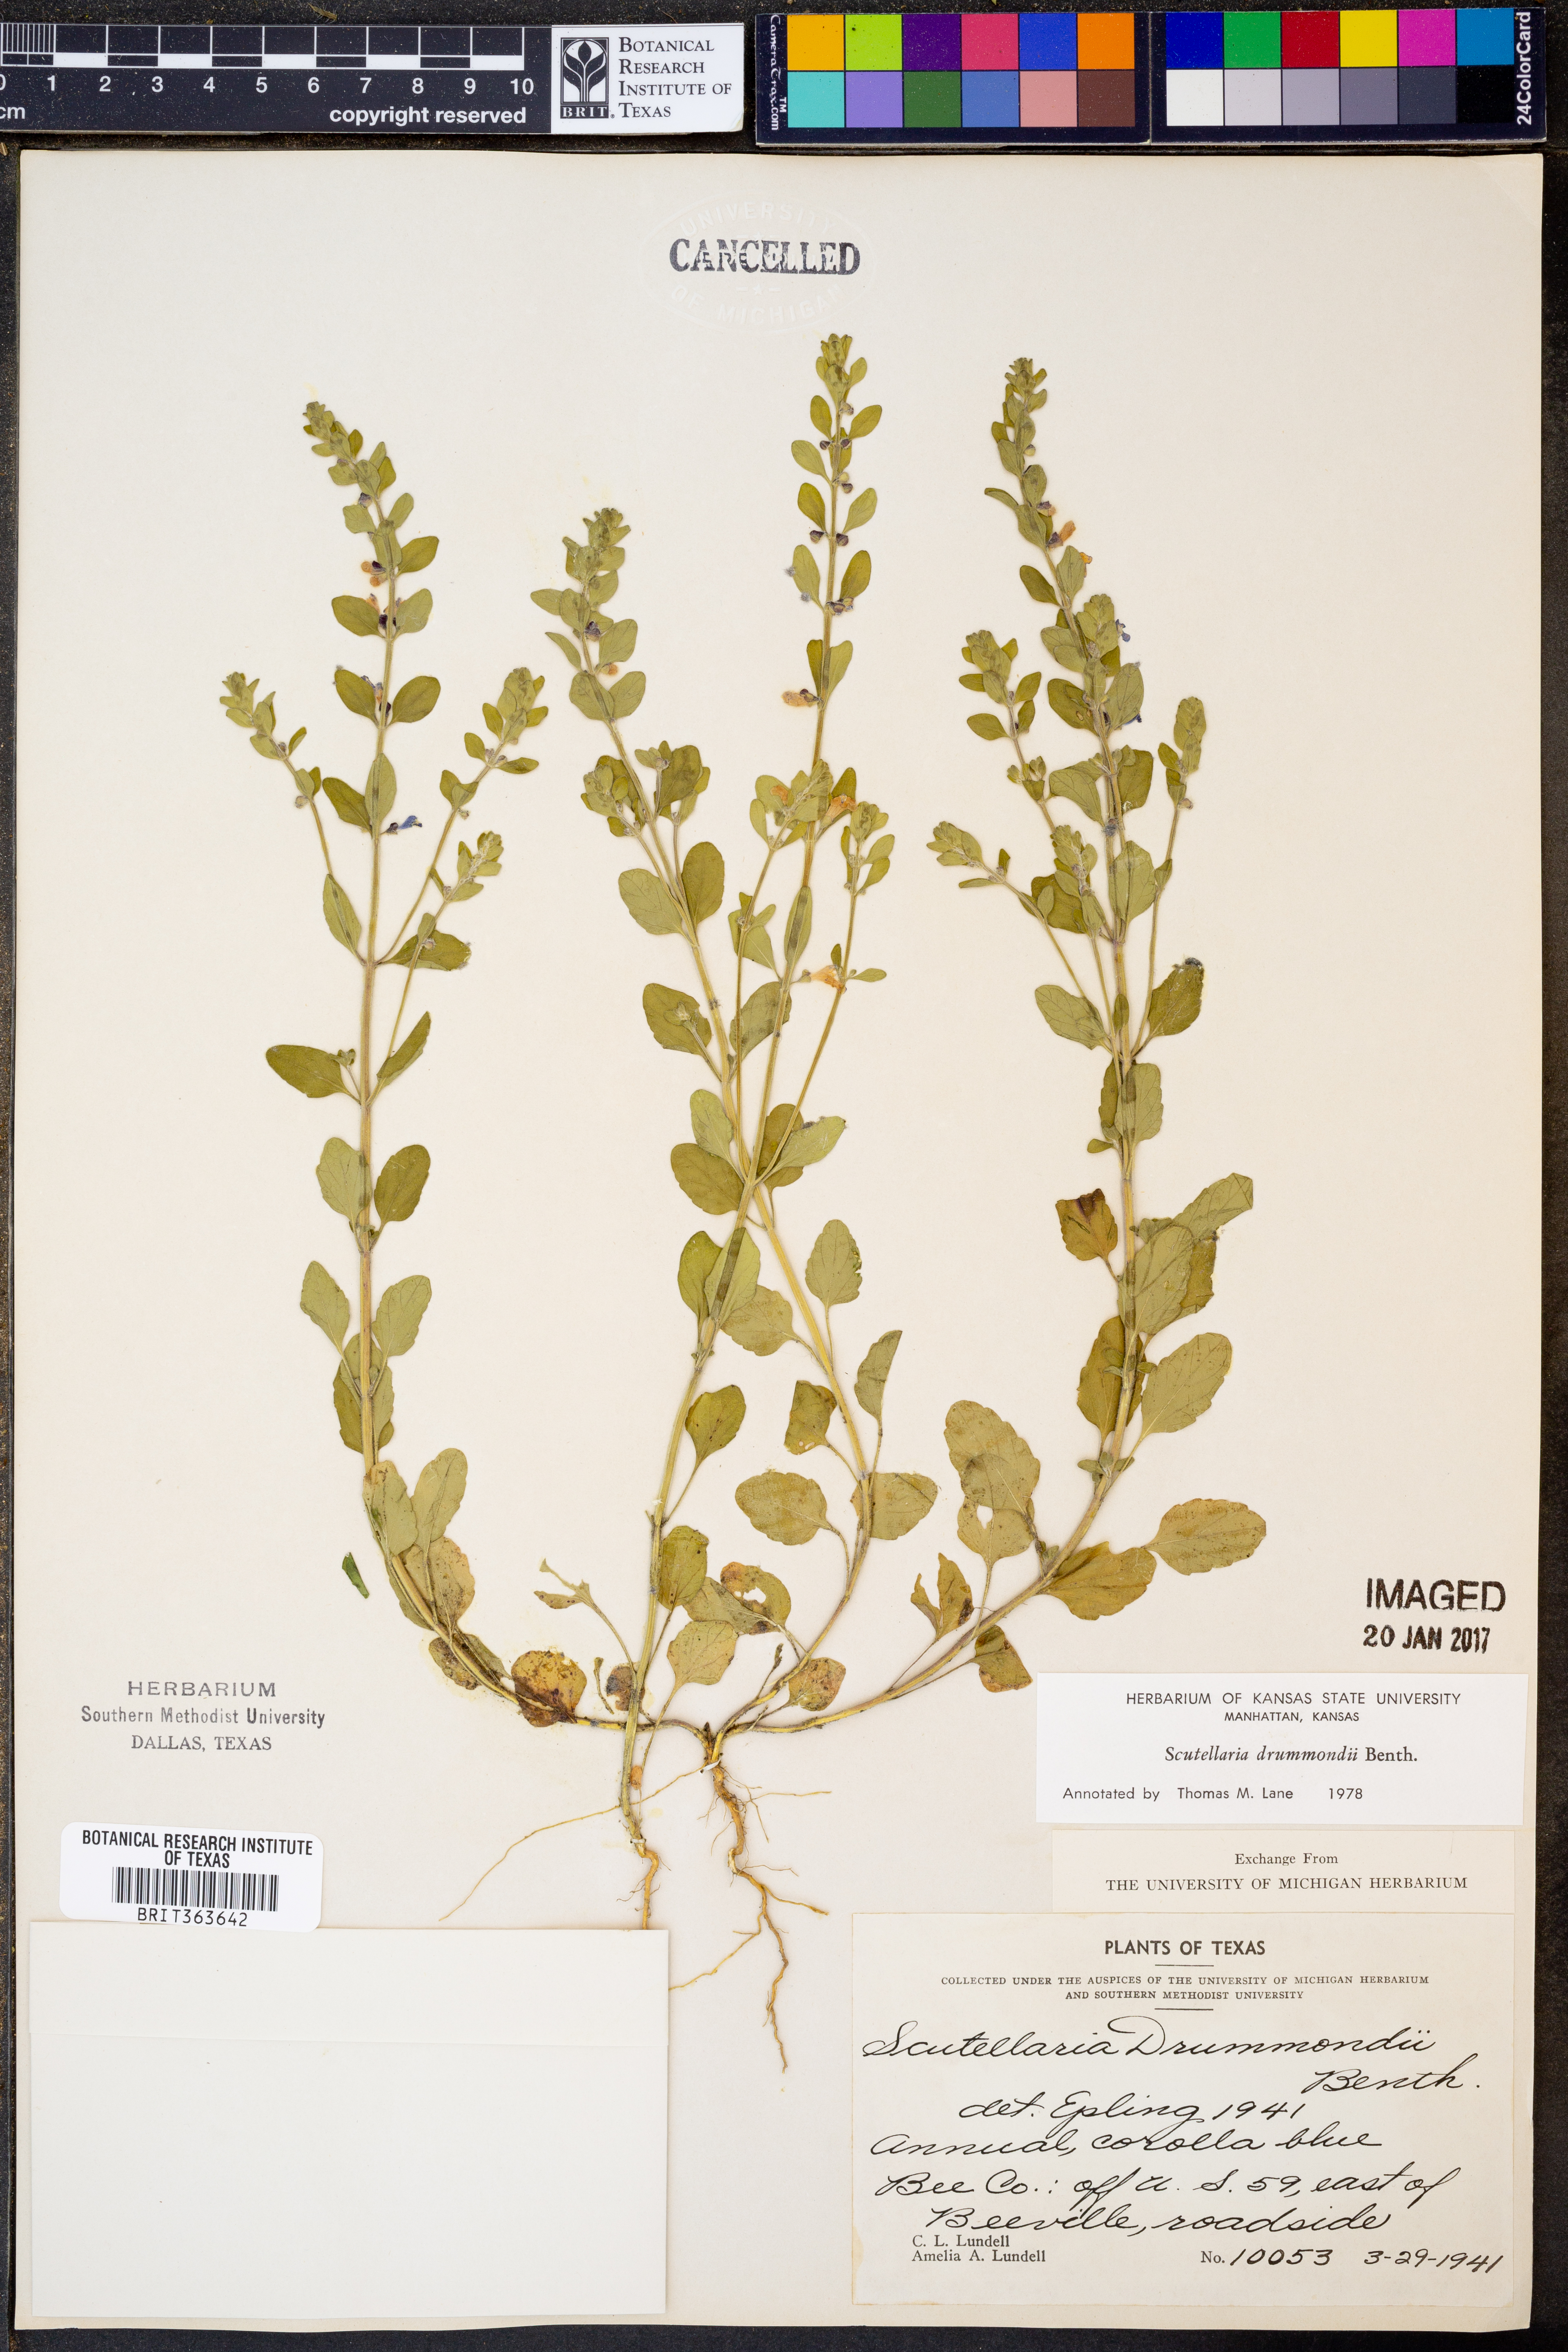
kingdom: Plantae
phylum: Tracheophyta
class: Magnoliopsida
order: Lamiales
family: Lamiaceae
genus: Scutellaria
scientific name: Scutellaria drummondii
